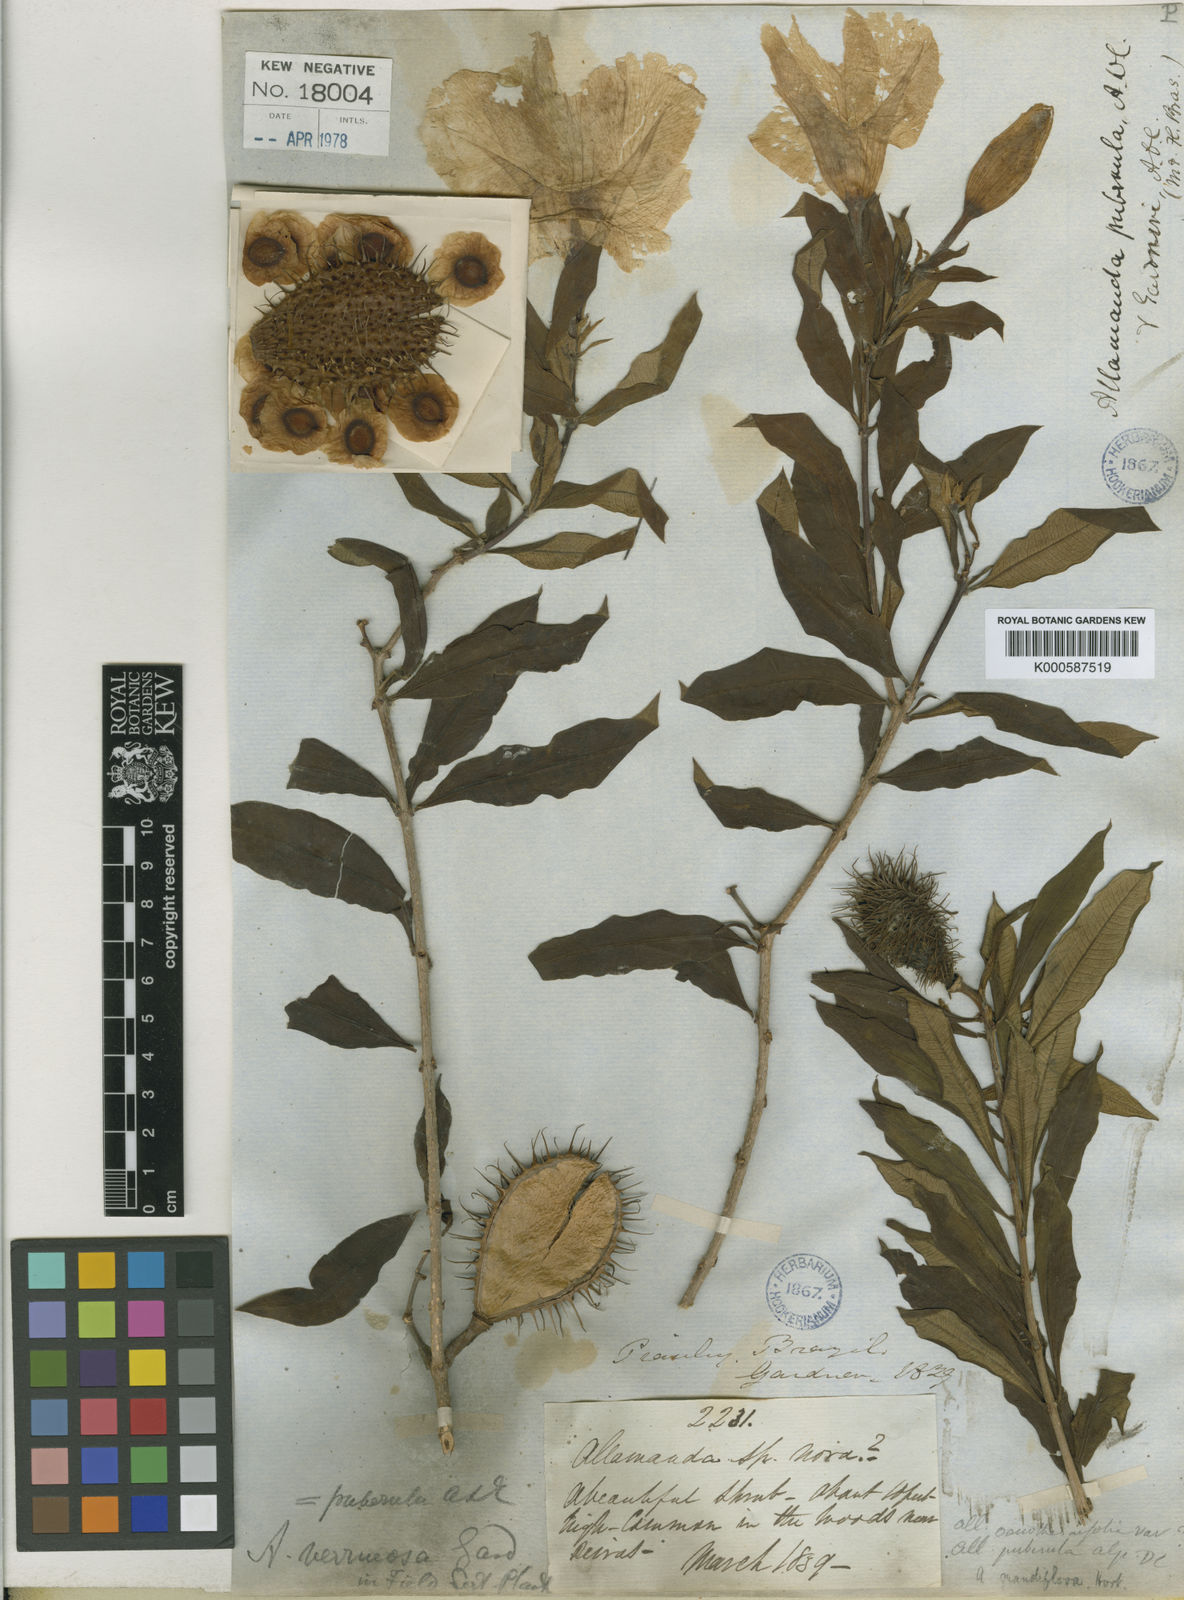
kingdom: Plantae
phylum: Tracheophyta
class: Magnoliopsida
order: Gentianales
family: Apocynaceae
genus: Allamanda
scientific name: Allamanda puberula
